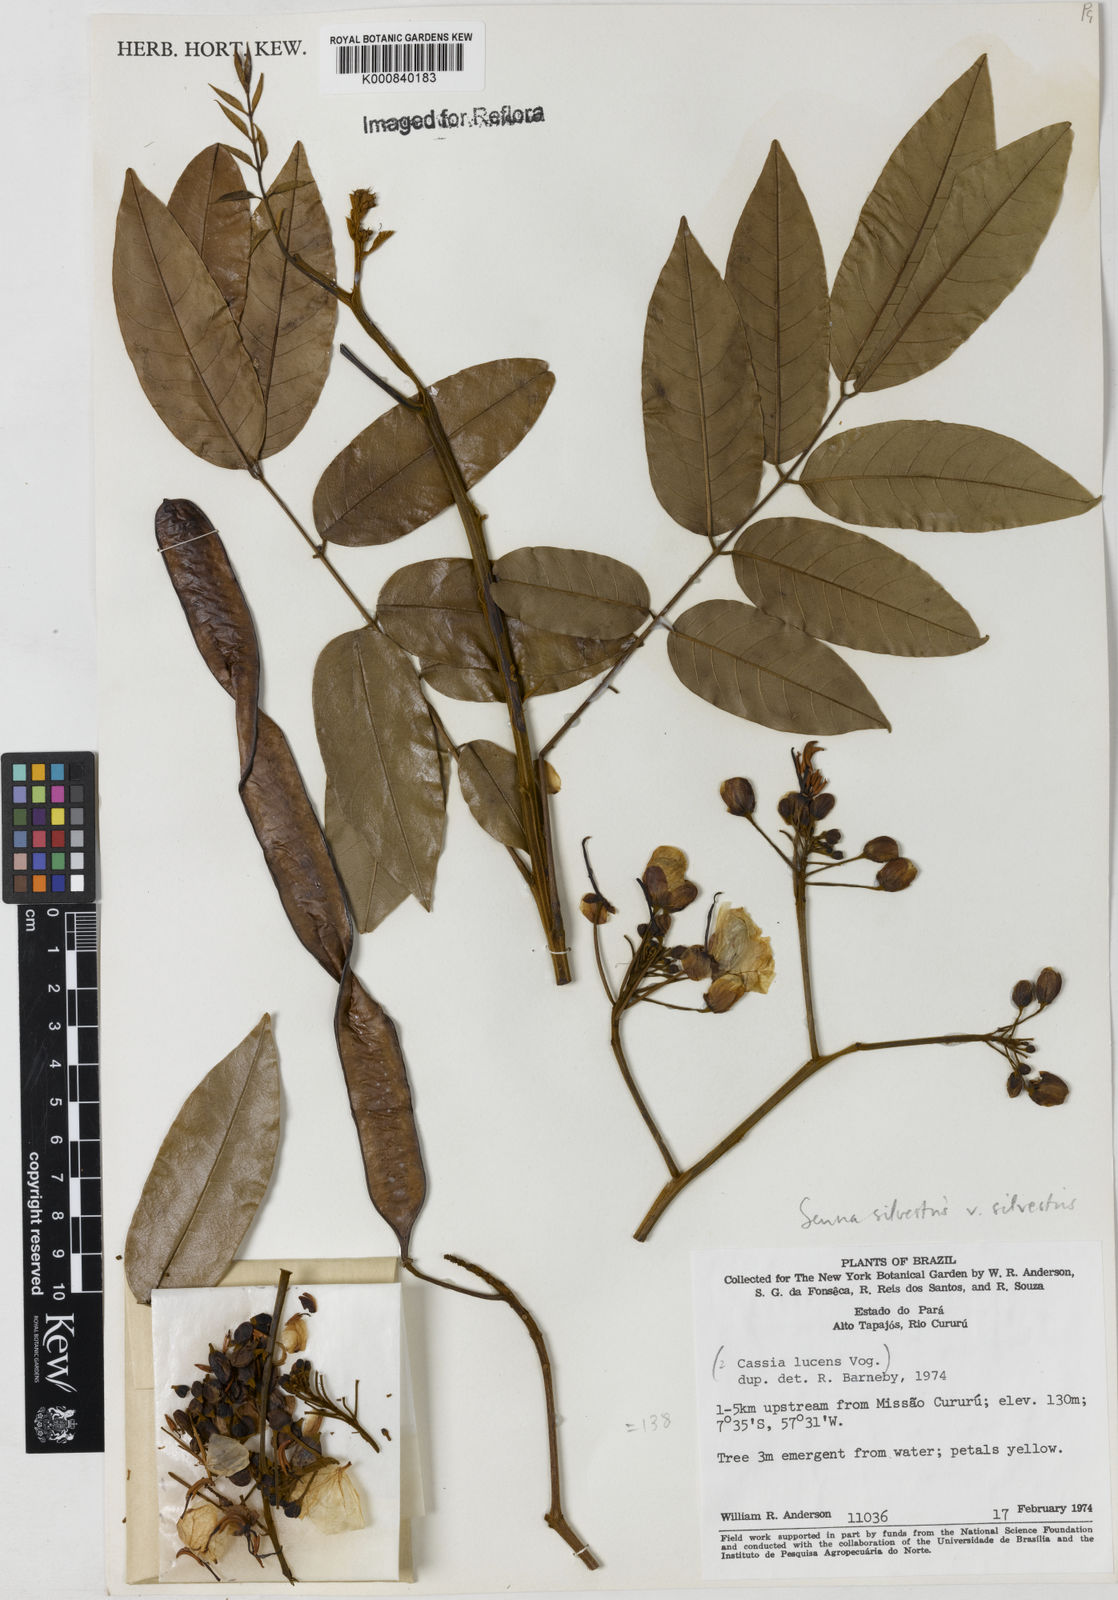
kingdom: Plantae
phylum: Tracheophyta
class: Magnoliopsida
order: Fabales
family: Fabaceae
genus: Senna
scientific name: Senna silvestris
